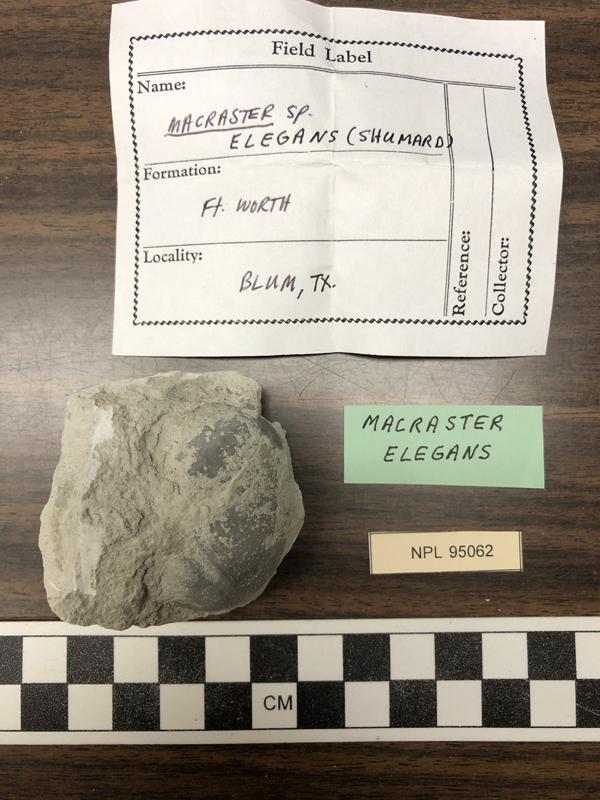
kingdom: Animalia
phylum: Echinodermata
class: Echinoidea
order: Spatangoida
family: Toxasteridae
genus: Macraster
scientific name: Macraster elegans
